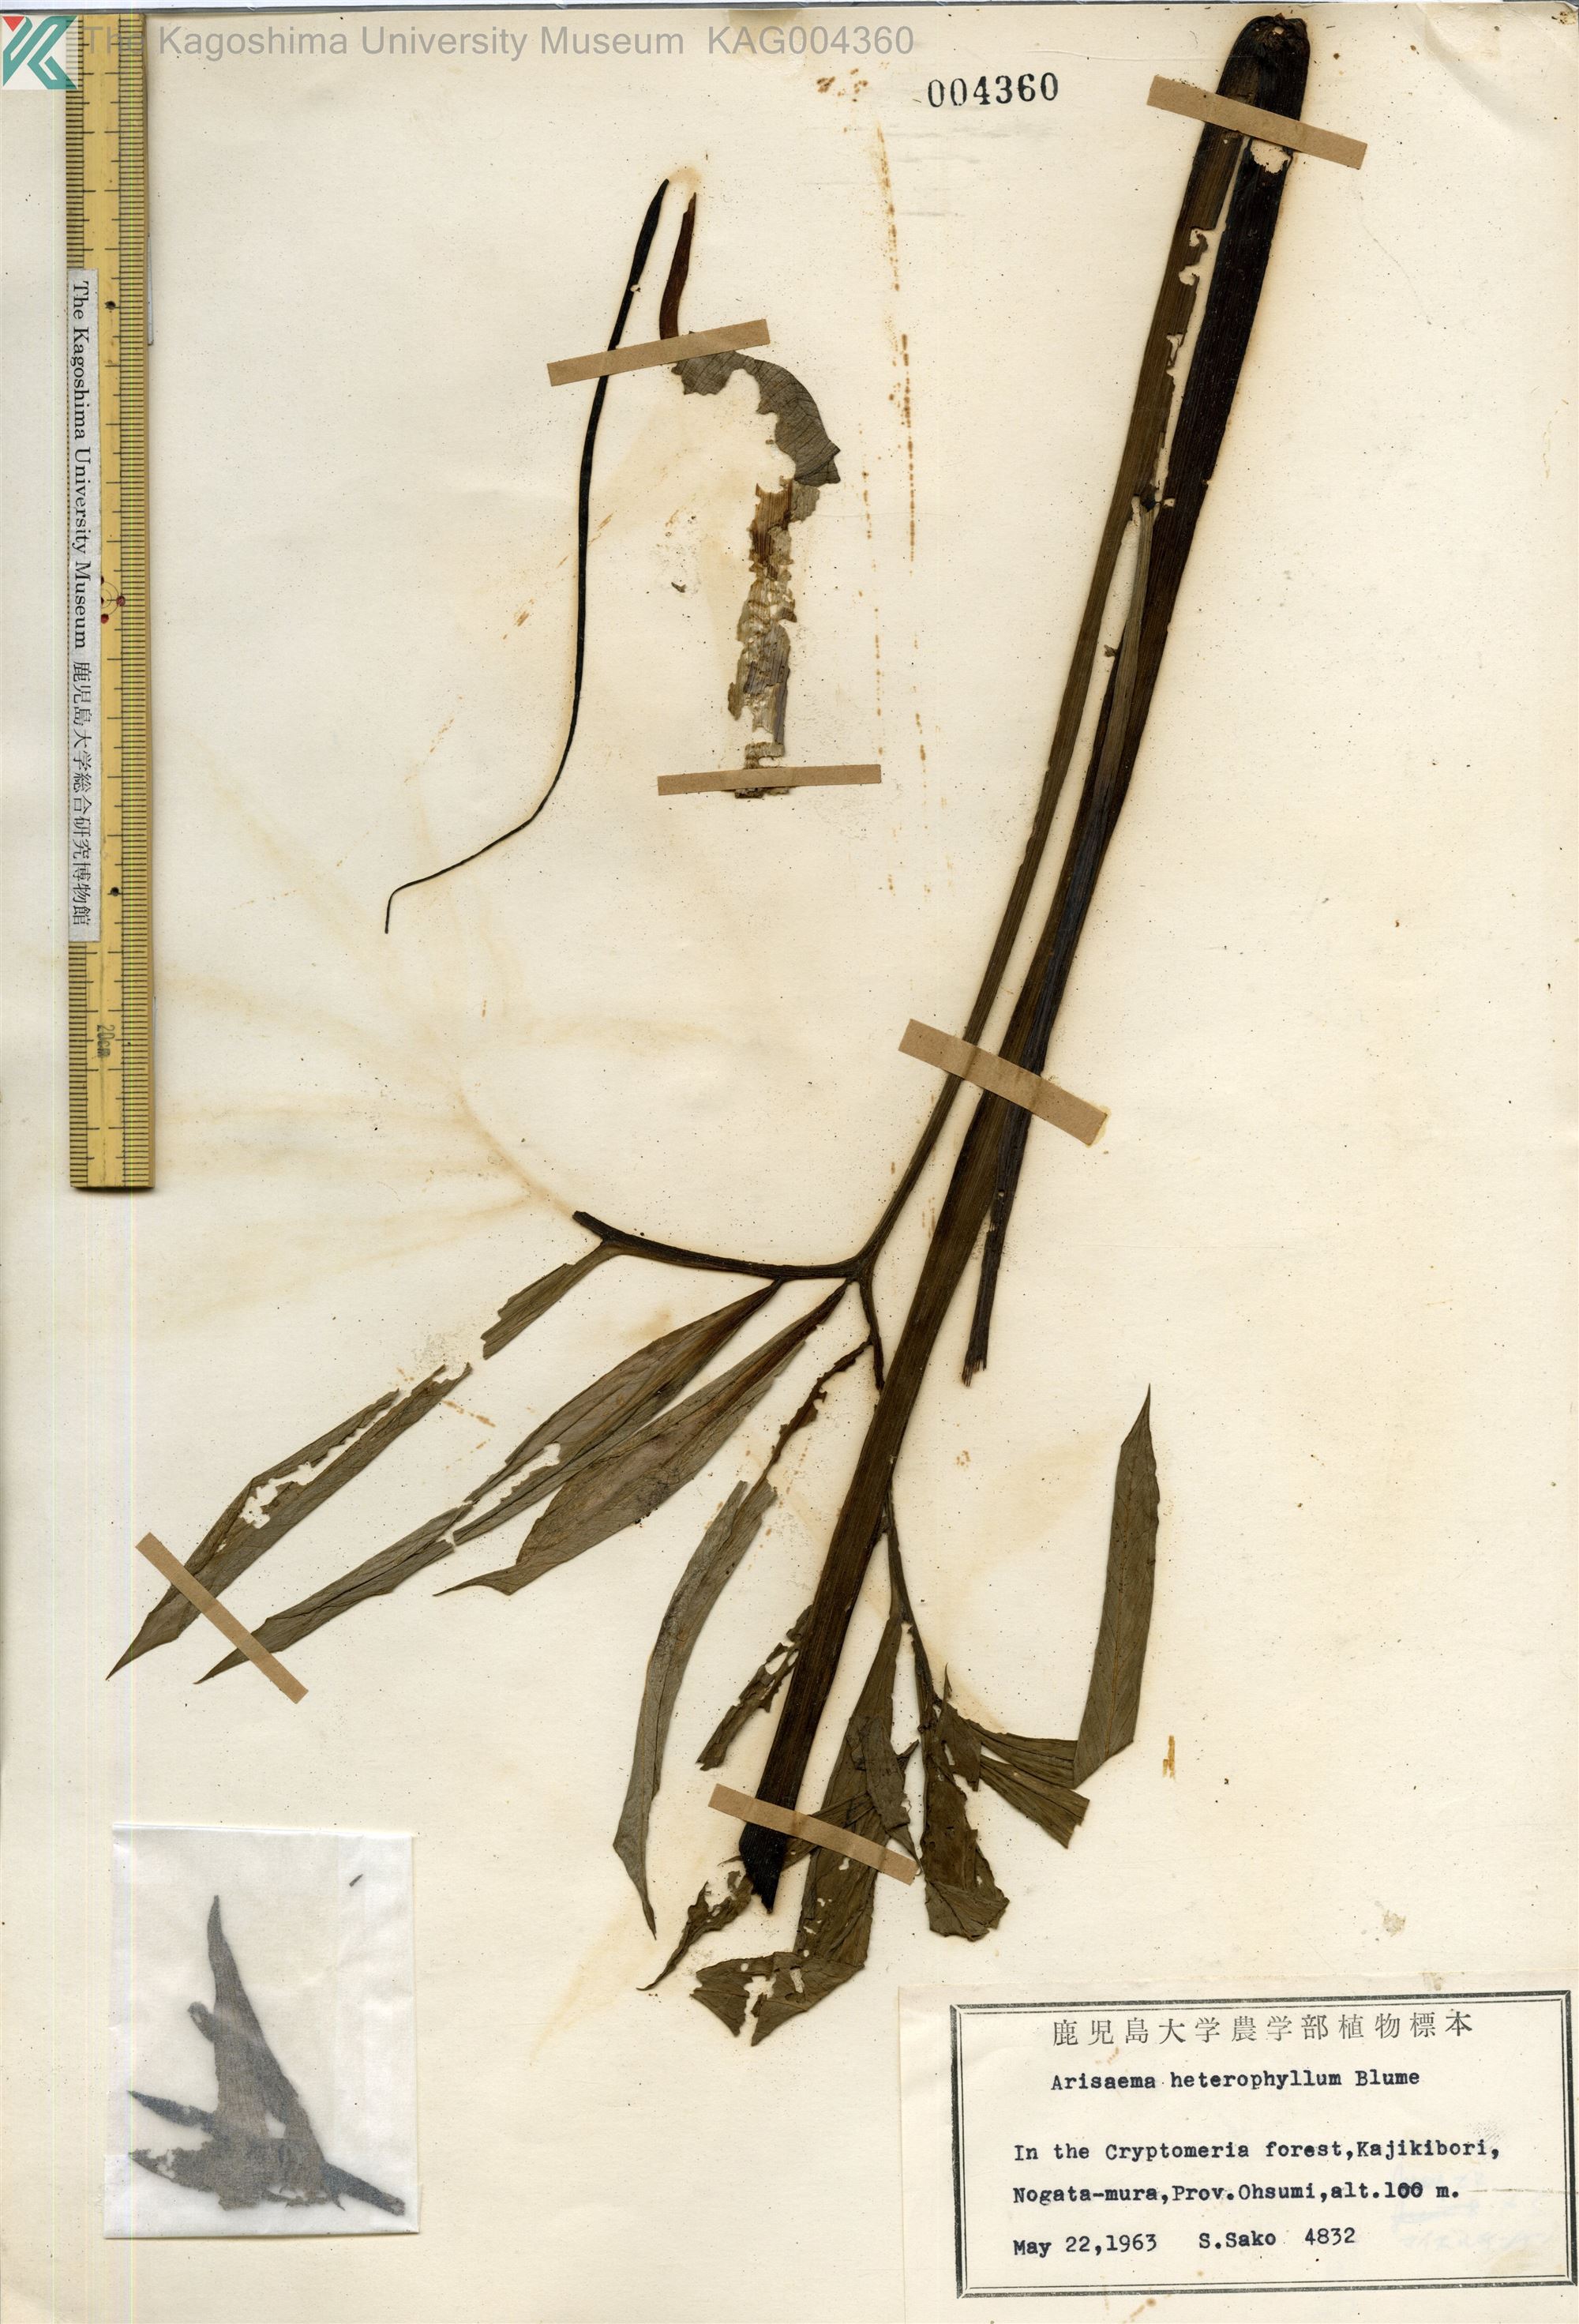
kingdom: Plantae
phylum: Tracheophyta
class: Liliopsida
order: Alismatales
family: Araceae
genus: Arisaema
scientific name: Arisaema heterophyllum
